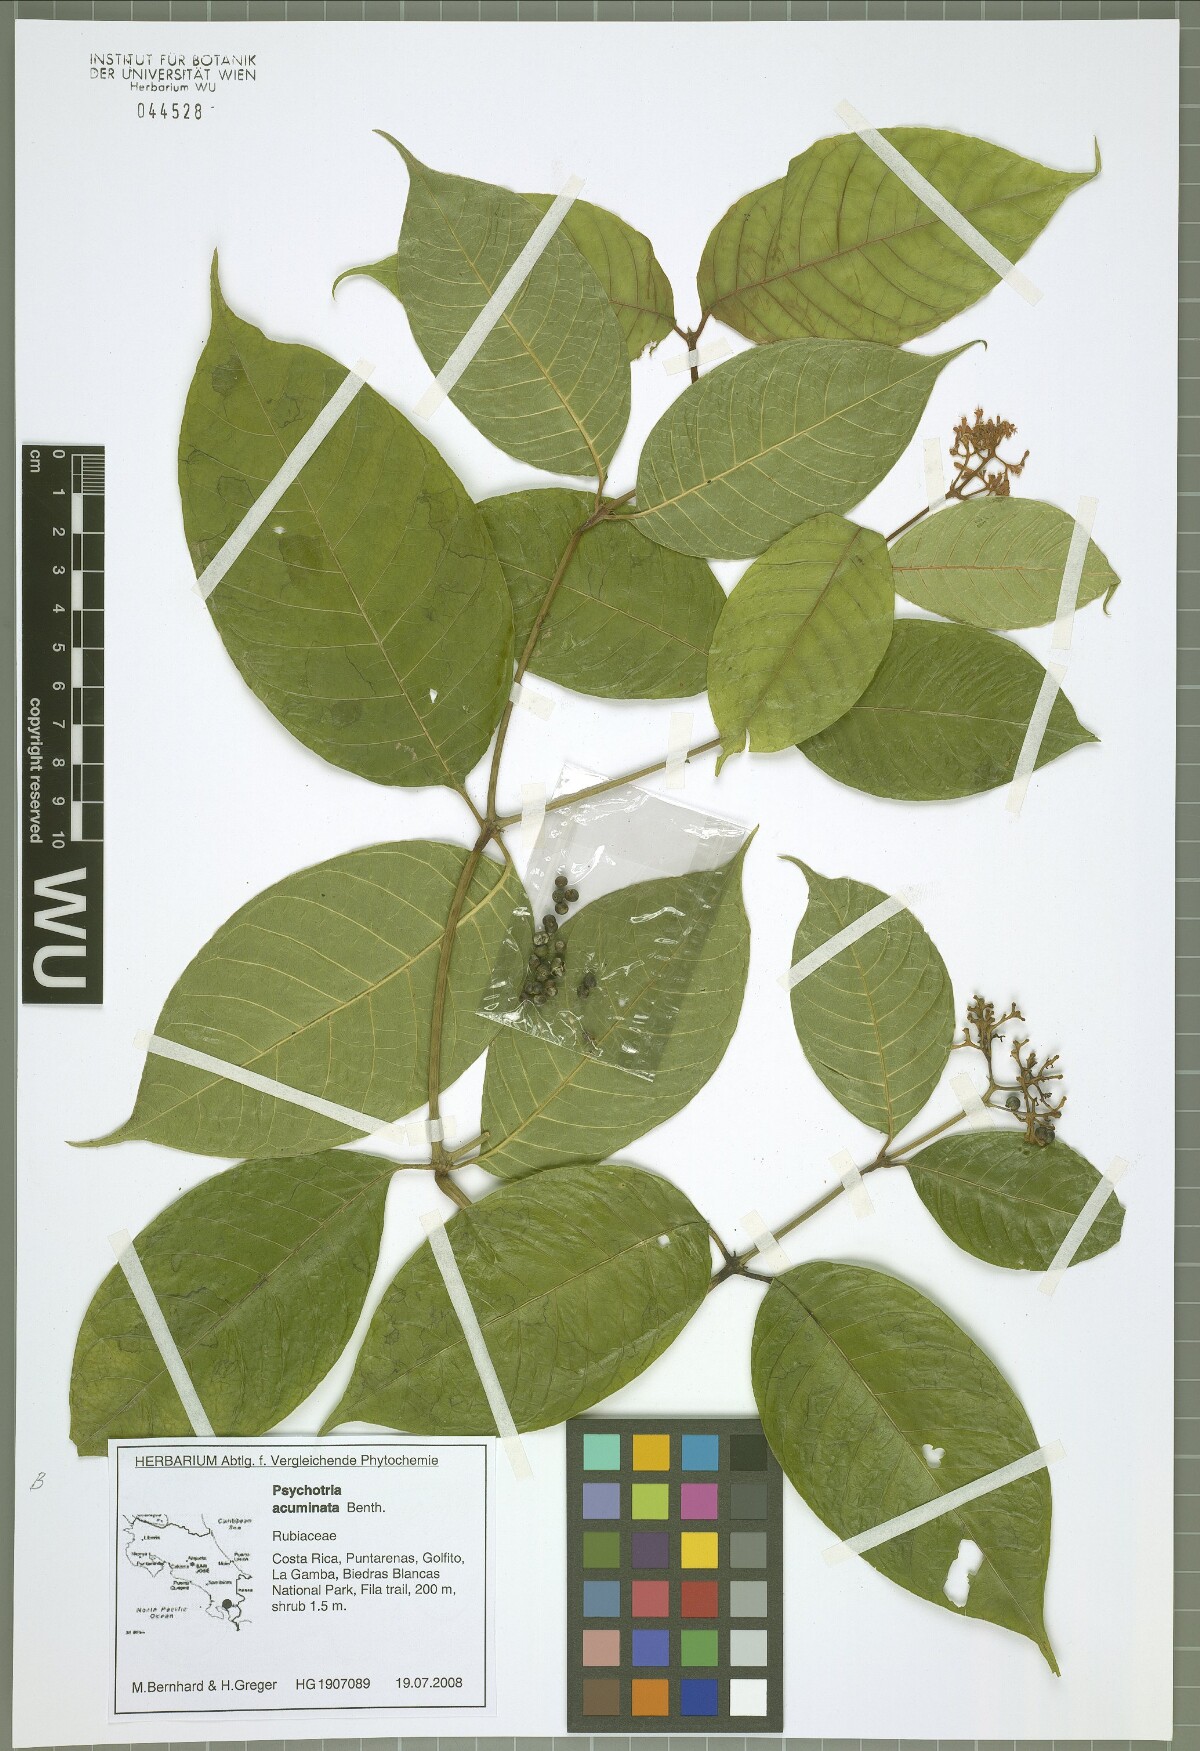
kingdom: Plantae
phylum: Tracheophyta
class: Magnoliopsida
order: Gentianales
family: Rubiaceae
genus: Palicourea
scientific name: Palicourea acuminata
